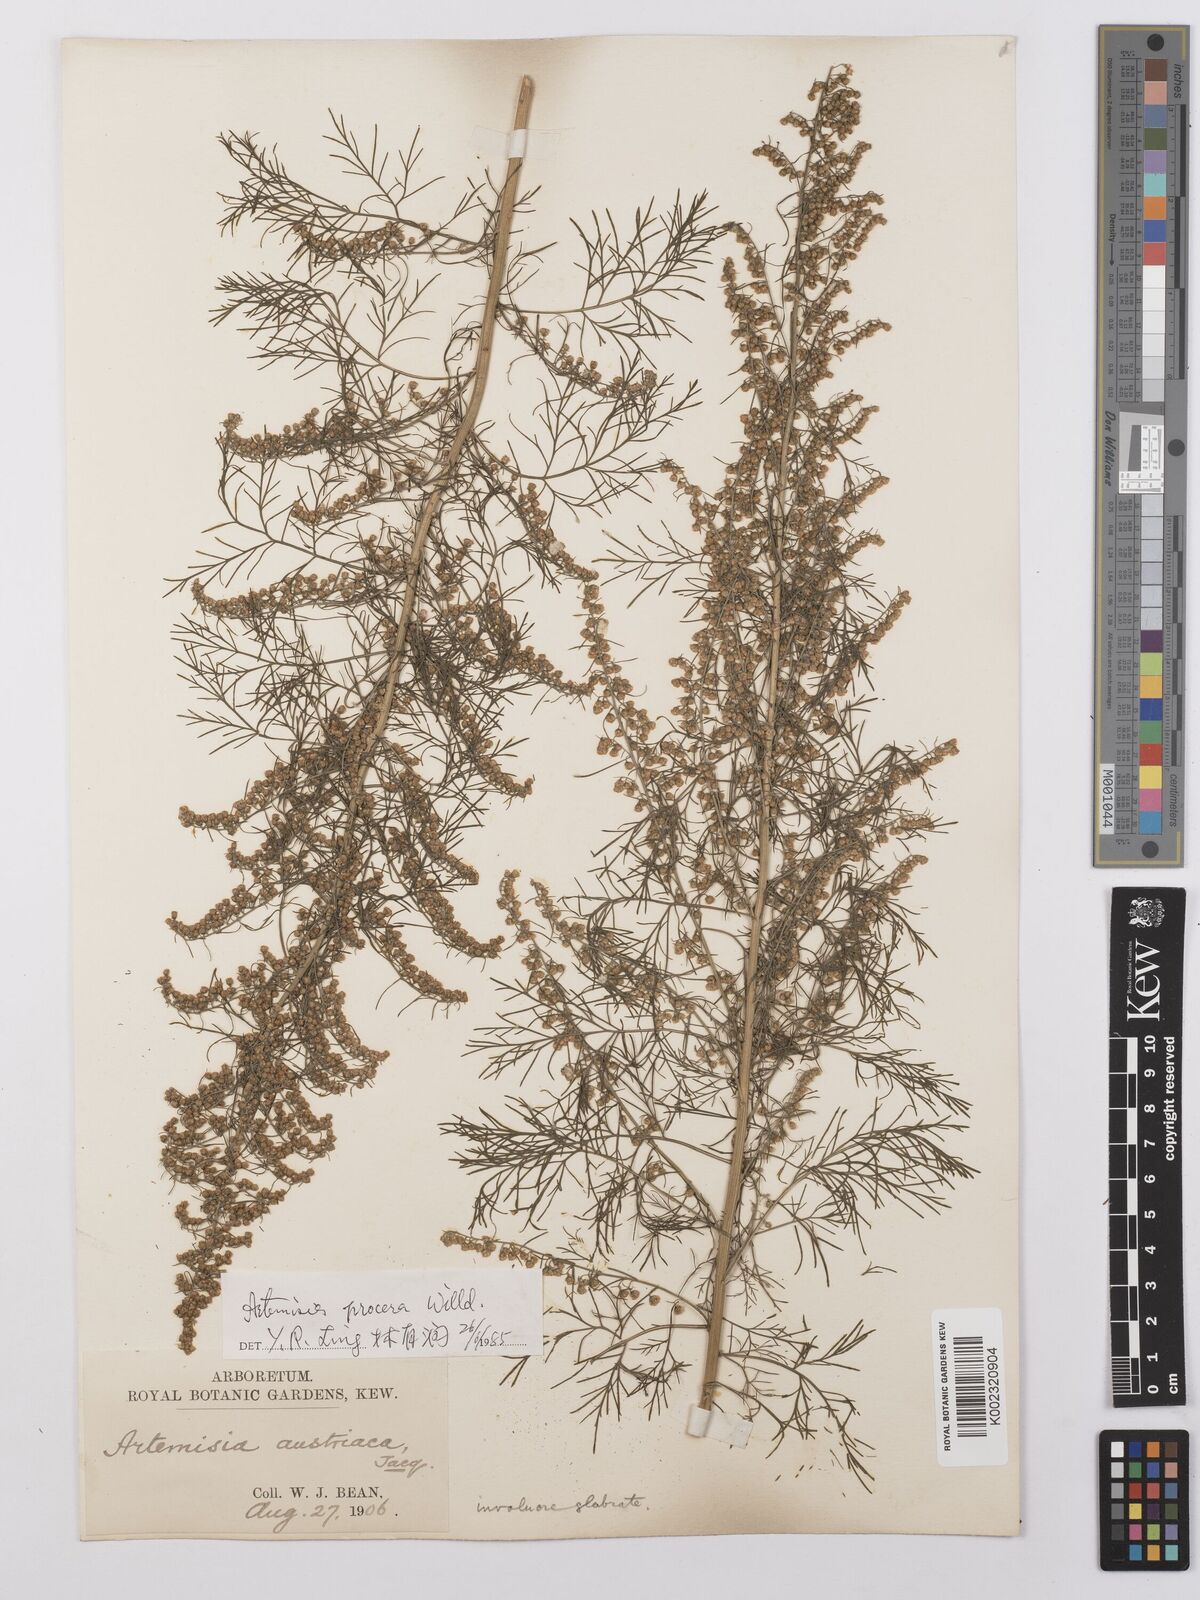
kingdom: Plantae
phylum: Tracheophyta
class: Magnoliopsida
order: Asterales
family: Asteraceae
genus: Artemisia
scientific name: Artemisia abrotanum
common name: Southernwood
